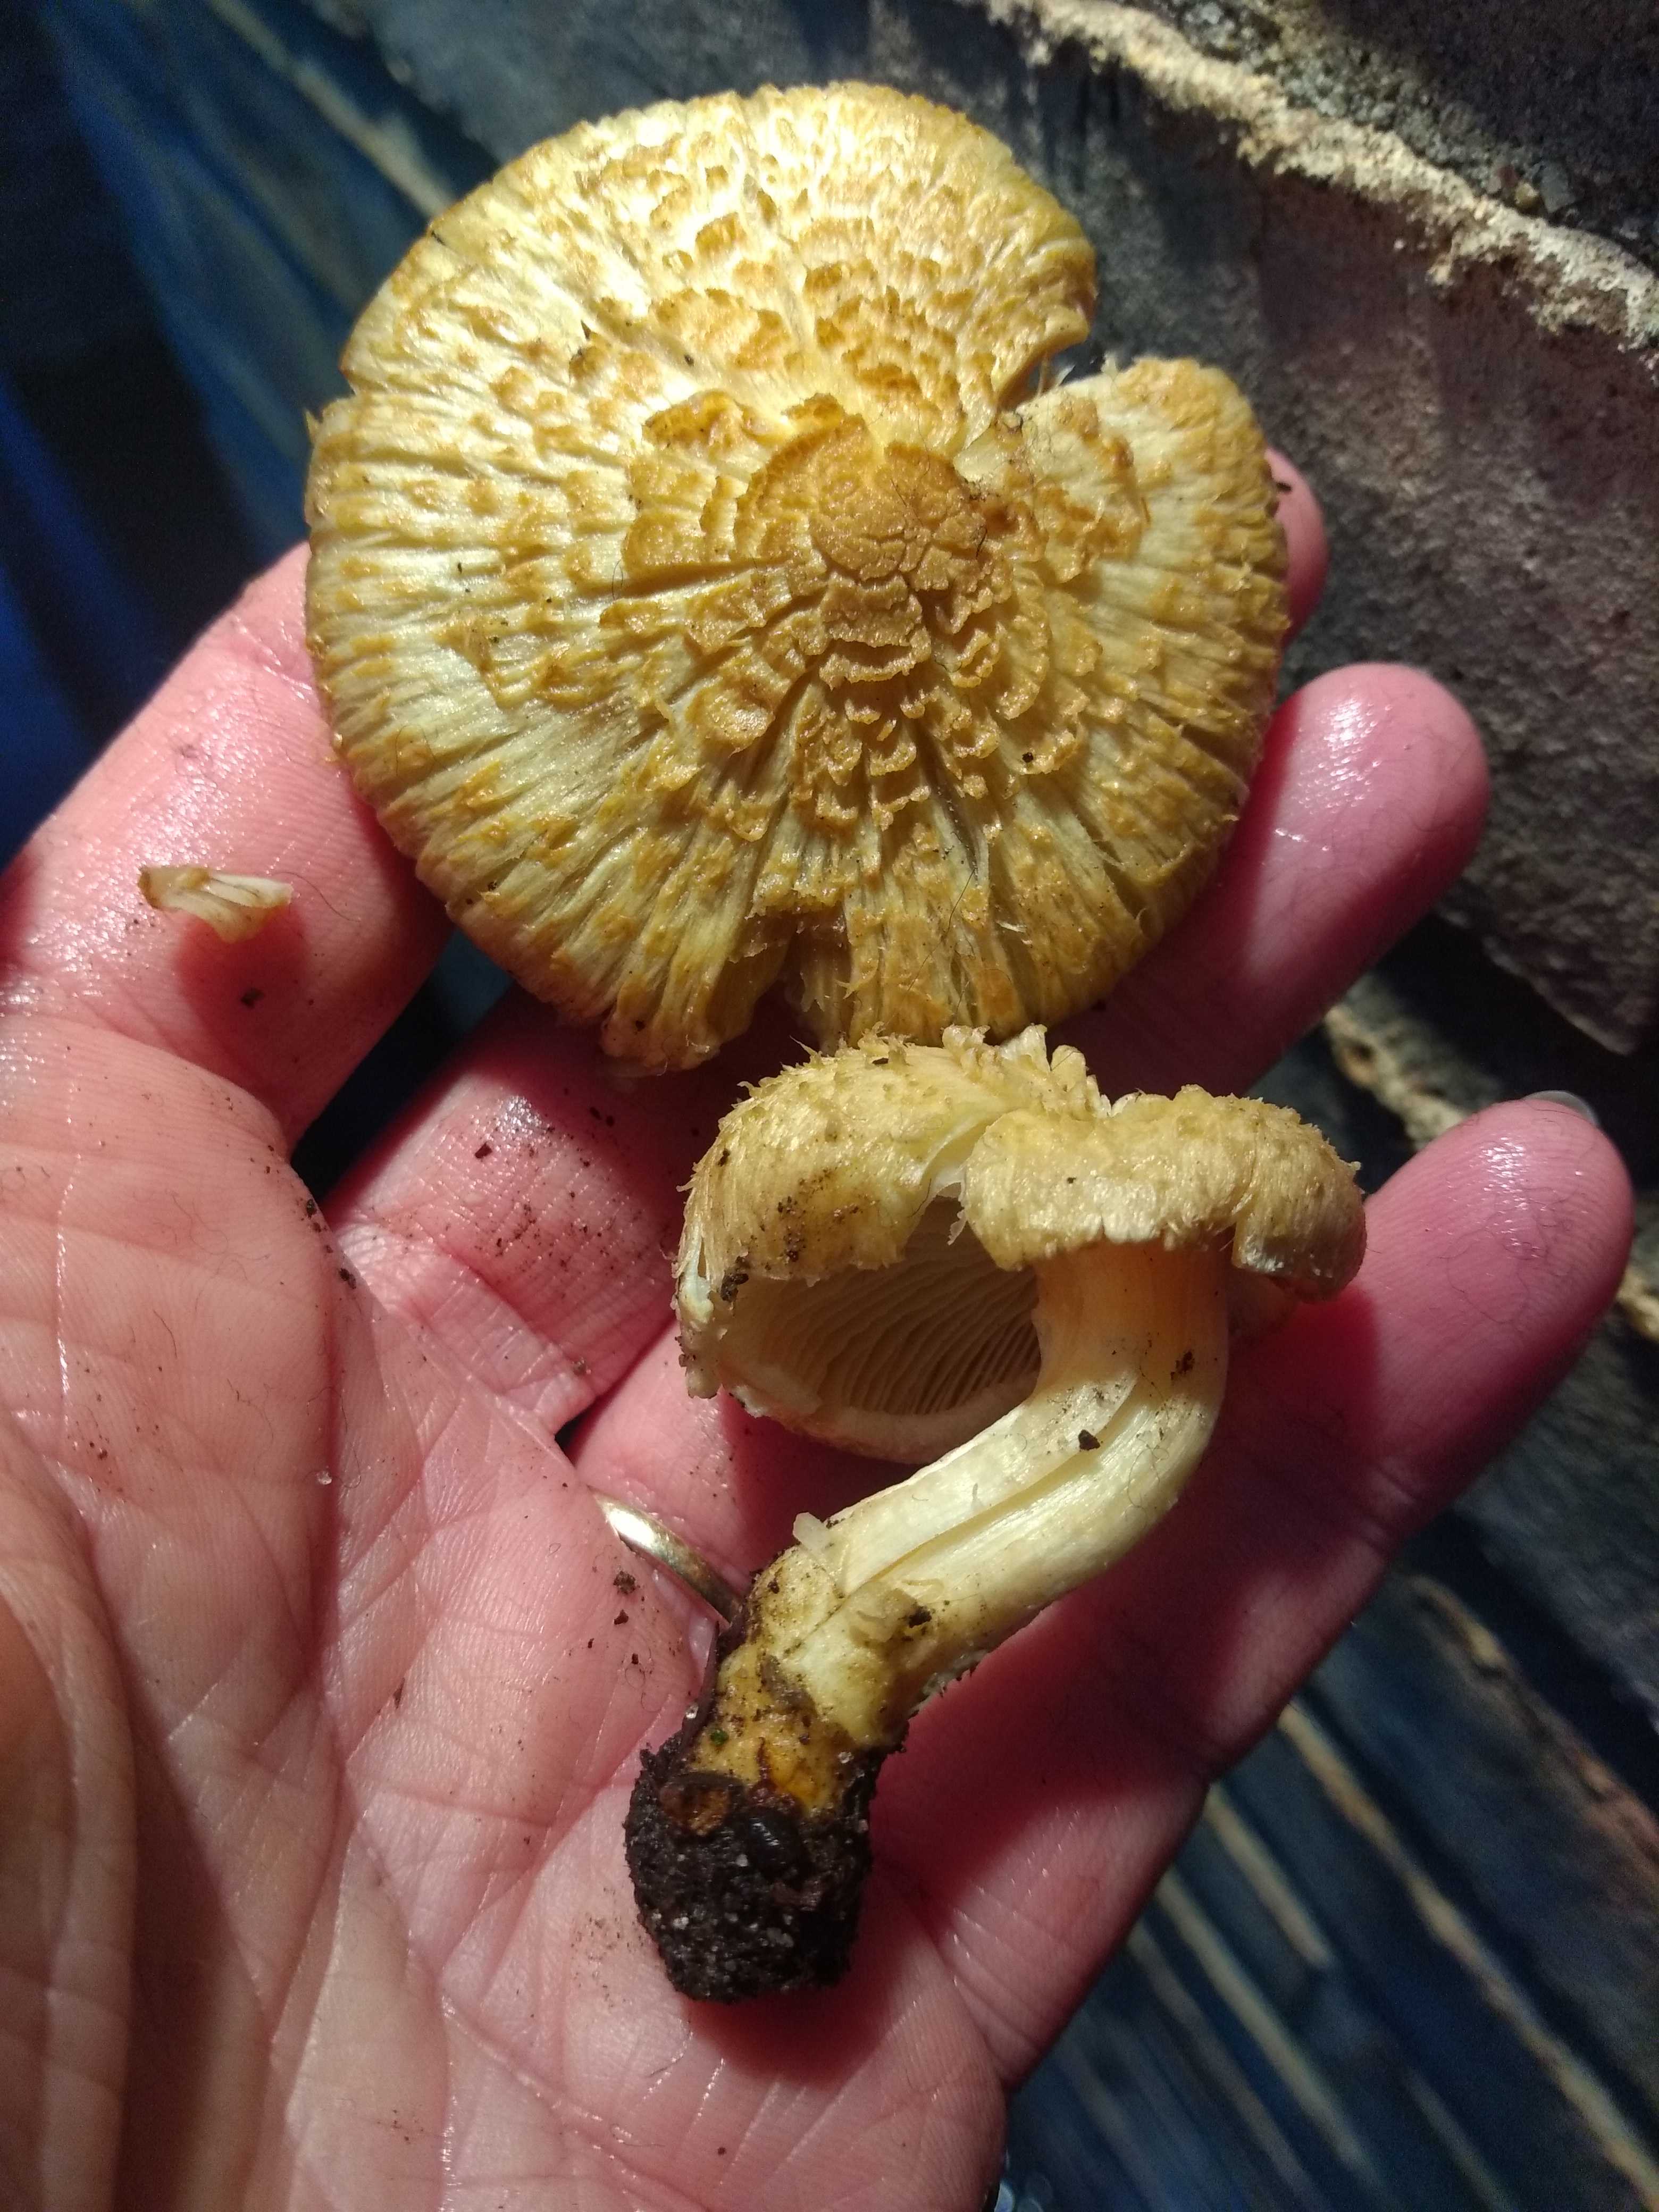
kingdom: Fungi
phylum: Basidiomycota
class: Agaricomycetes
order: Agaricales
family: Inocybaceae
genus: Inocybe
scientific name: Inocybe
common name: trævlhat
